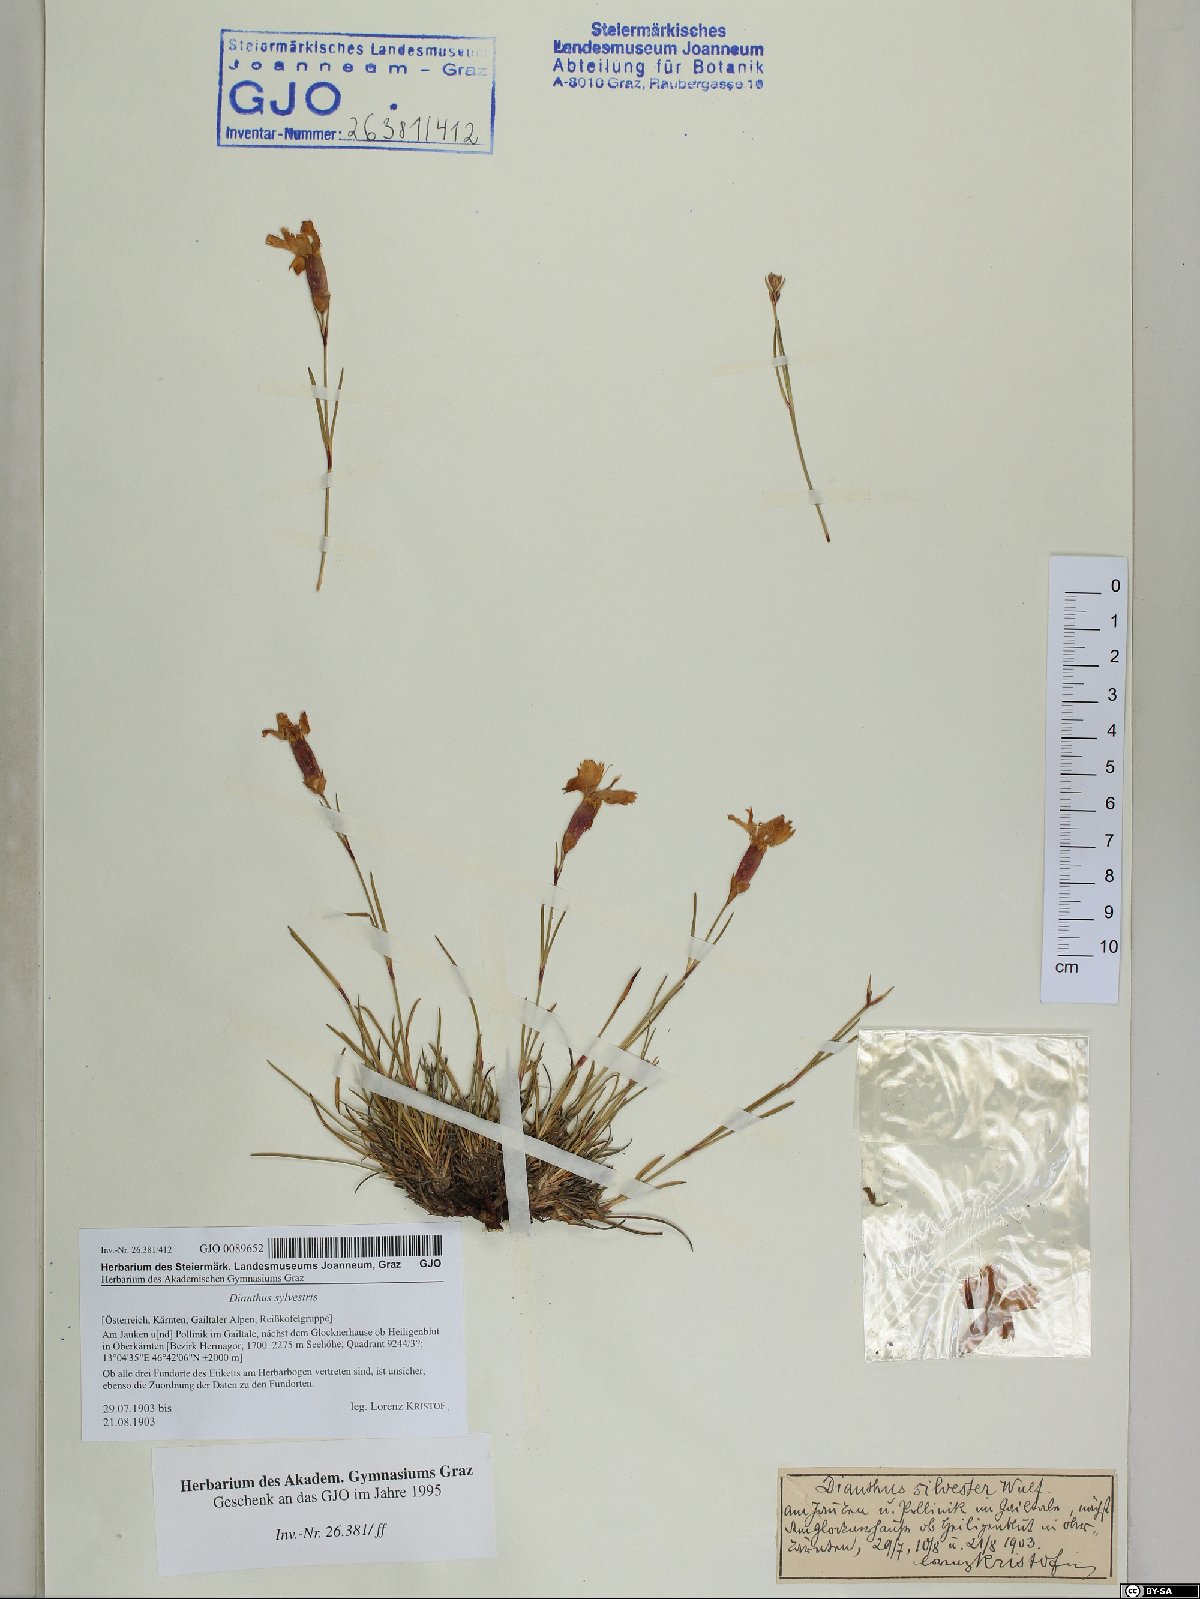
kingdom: Plantae
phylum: Tracheophyta
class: Magnoliopsida
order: Caryophyllales
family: Caryophyllaceae
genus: Dianthus
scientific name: Dianthus sylvestris
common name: Wood pink
